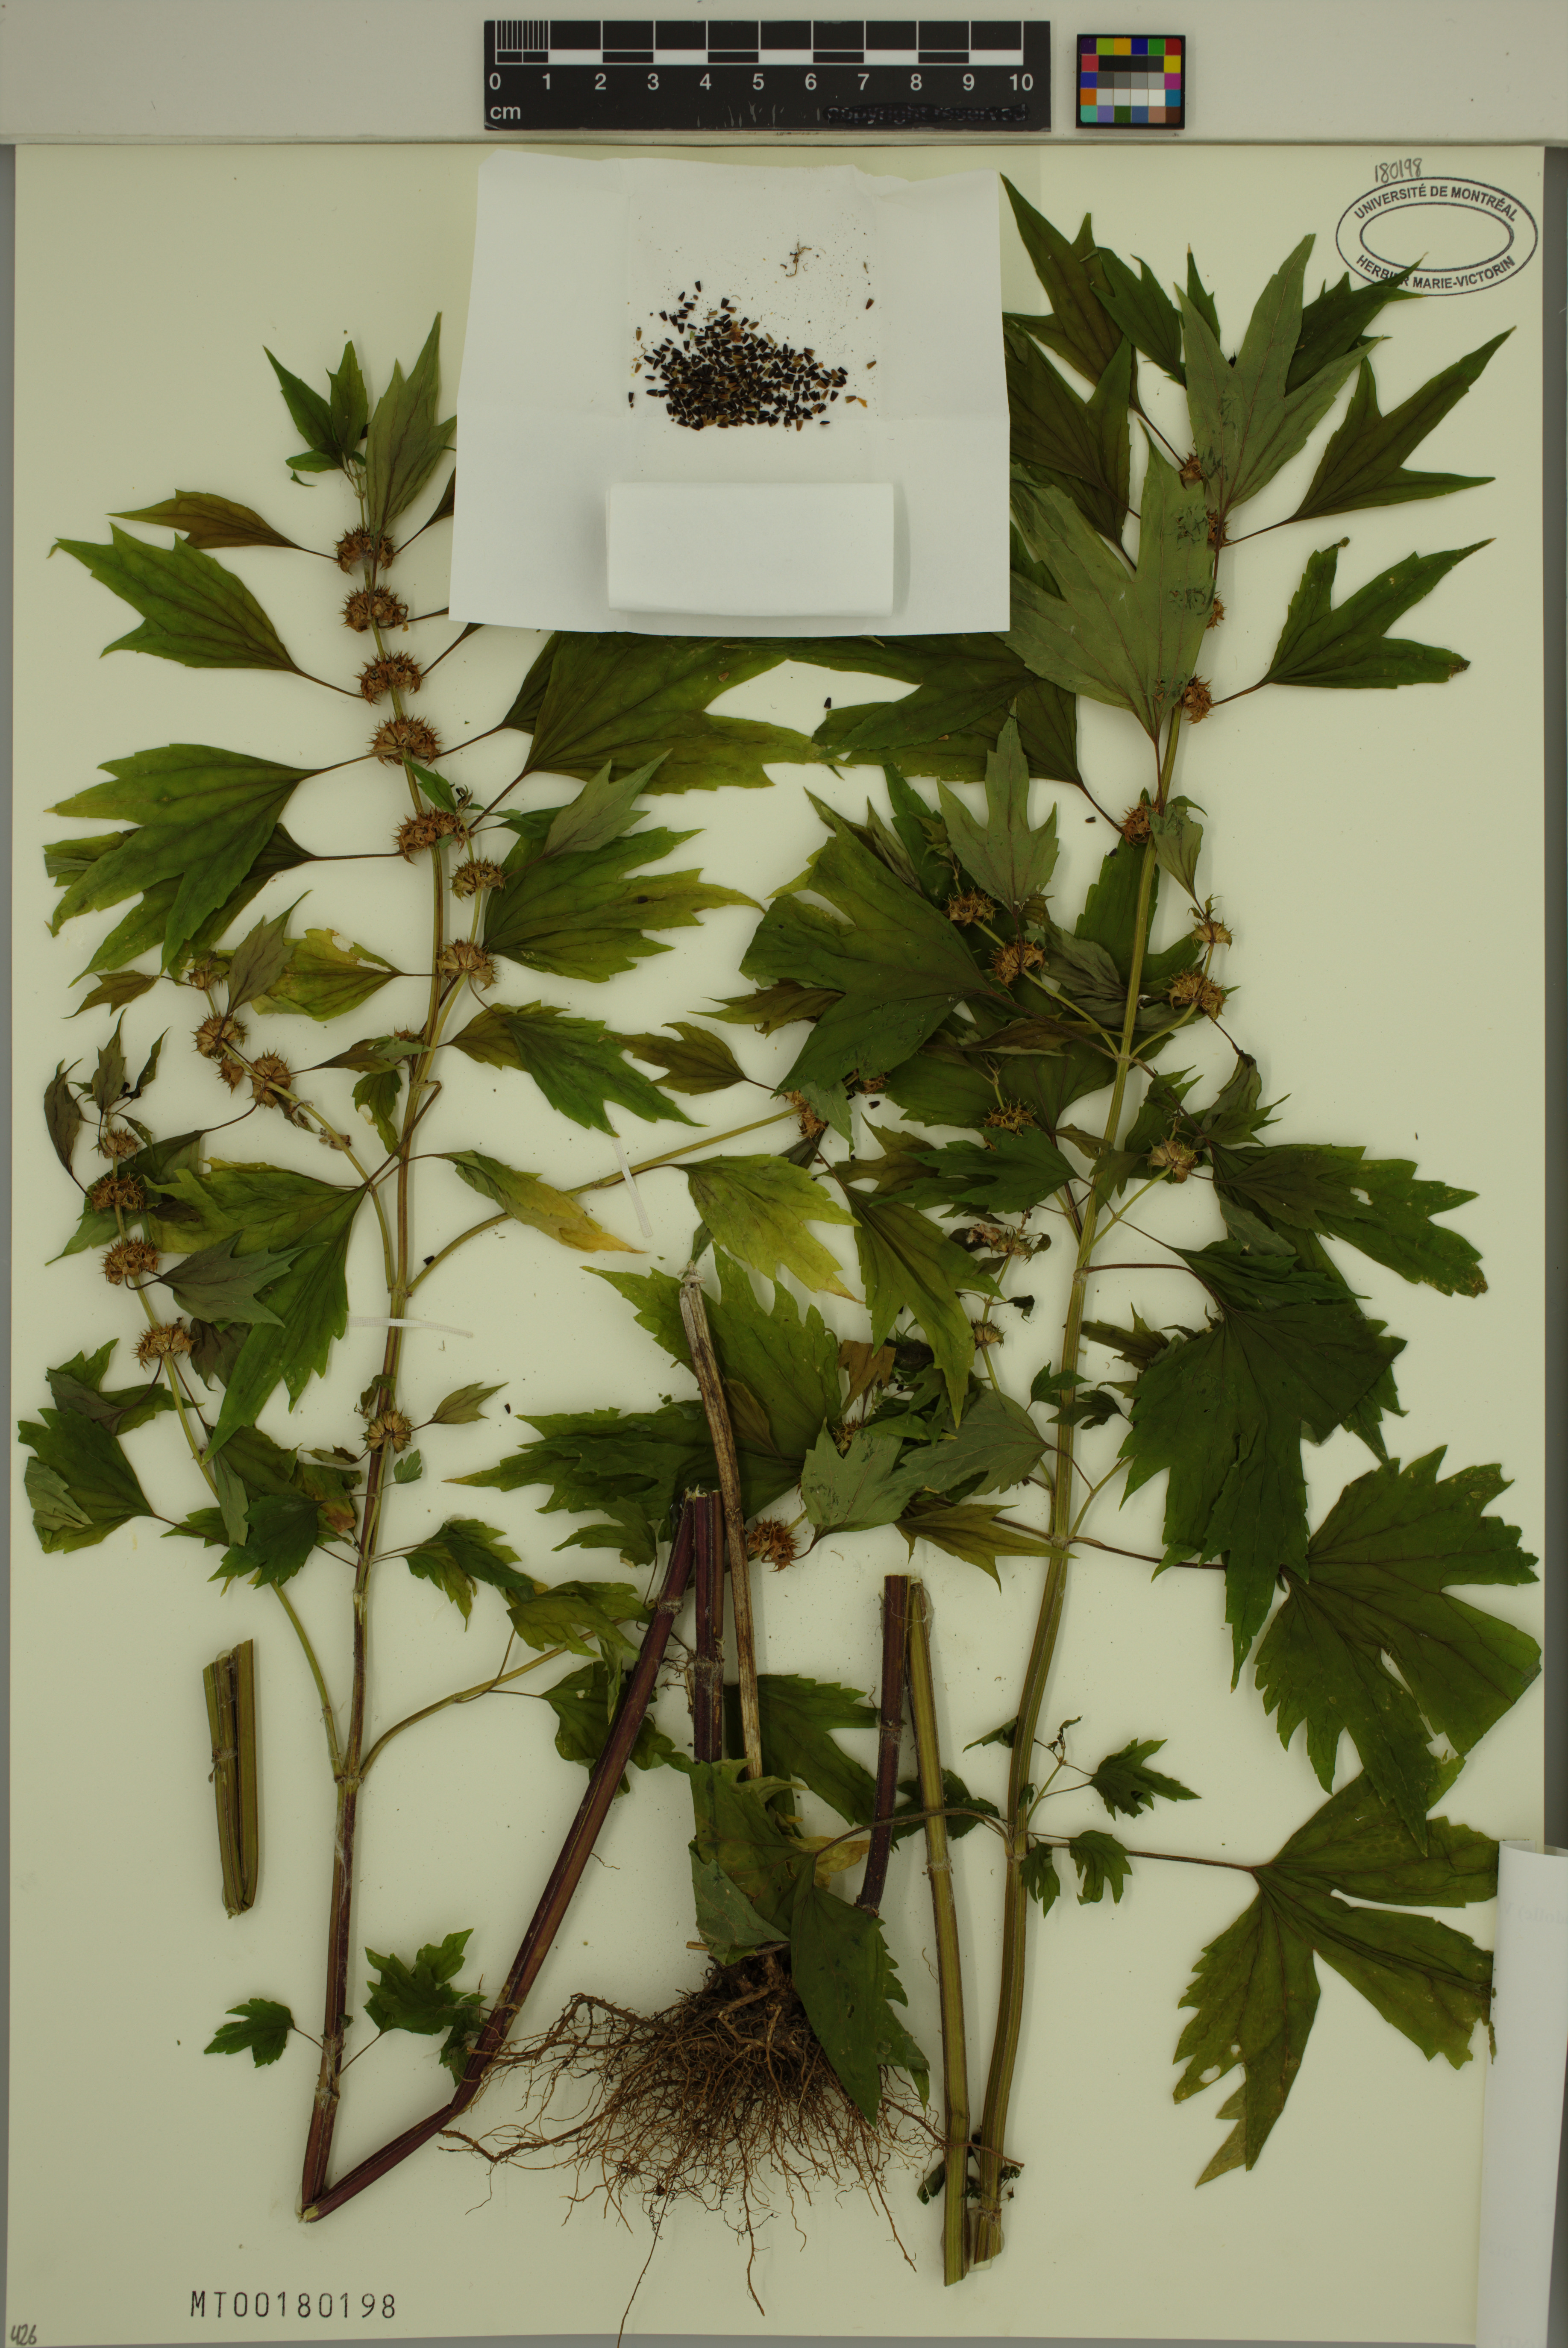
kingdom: Plantae
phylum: Tracheophyta
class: Magnoliopsida
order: Lamiales
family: Lamiaceae
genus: Leonurus
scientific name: Leonurus cardiaca
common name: Motherwort
